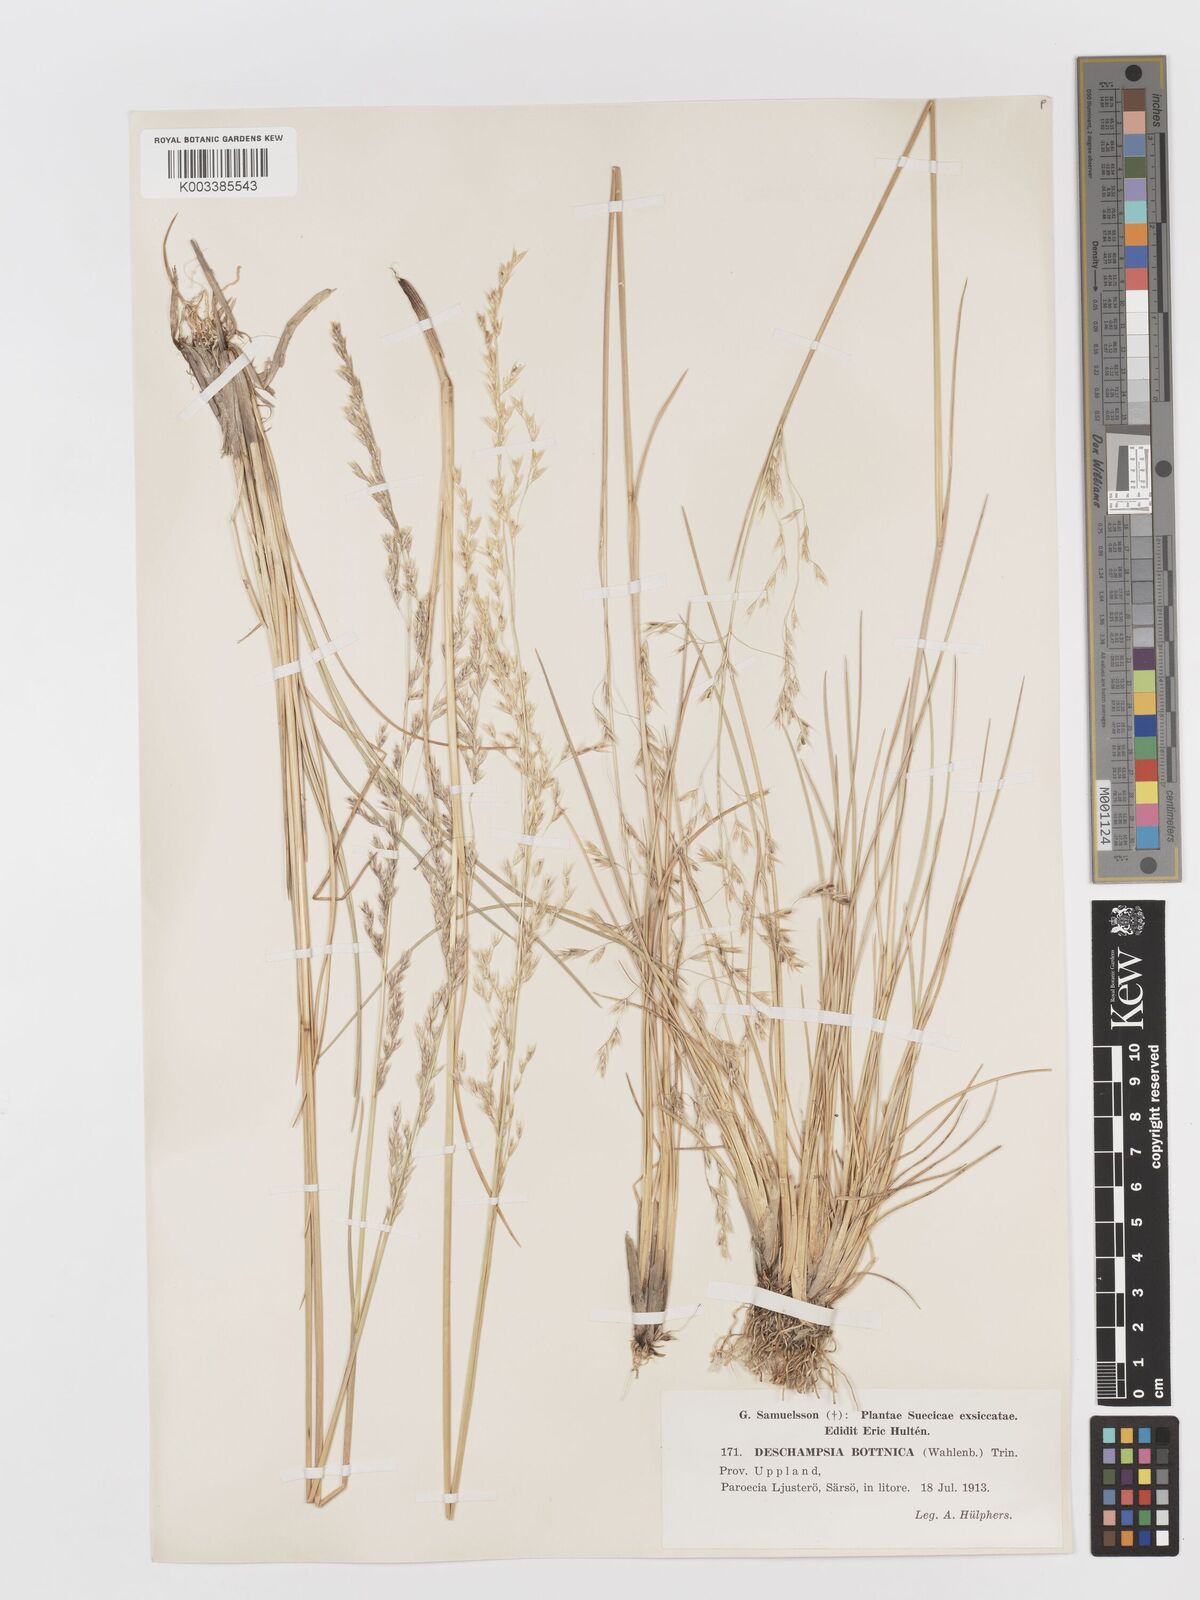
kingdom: Plantae
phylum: Tracheophyta
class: Liliopsida
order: Poales
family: Poaceae
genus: Deschampsia
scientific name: Deschampsia cespitosa
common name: Tufted hair-grass
